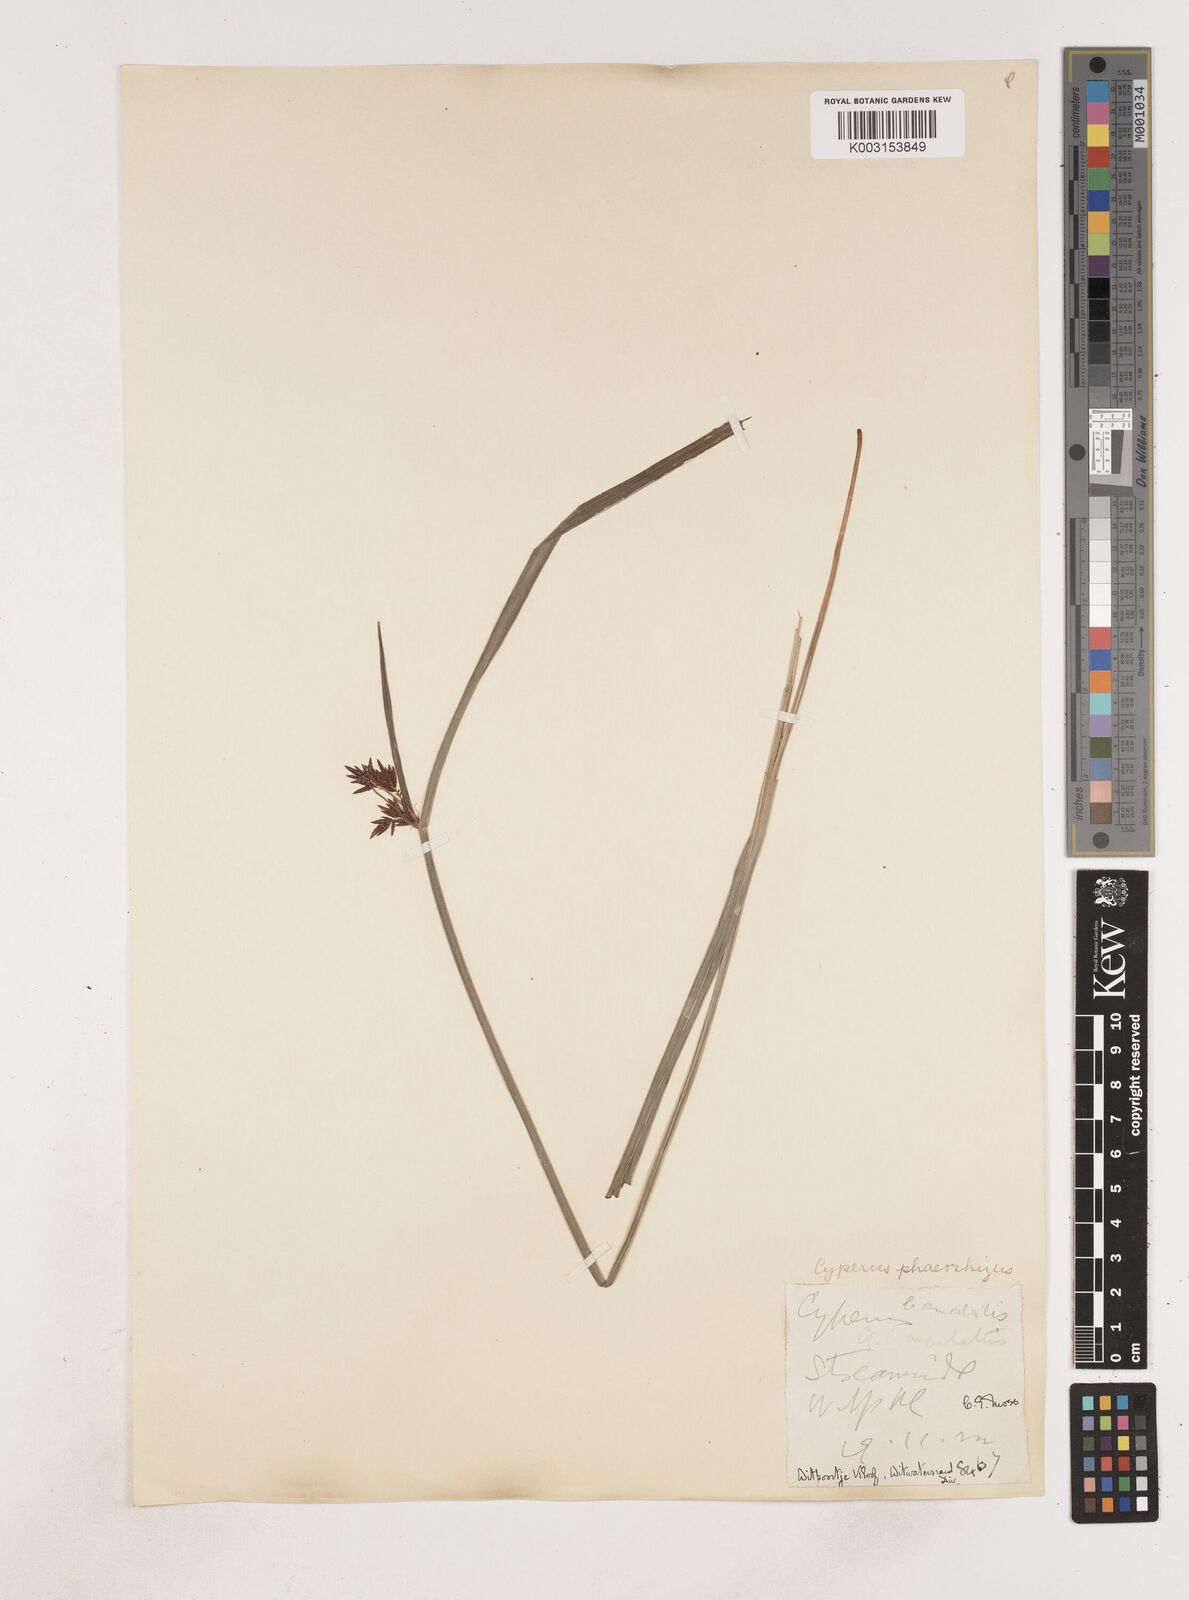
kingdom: Plantae
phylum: Tracheophyta
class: Liliopsida
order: Poales
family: Cyperaceae
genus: Cyperus
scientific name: Cyperus
